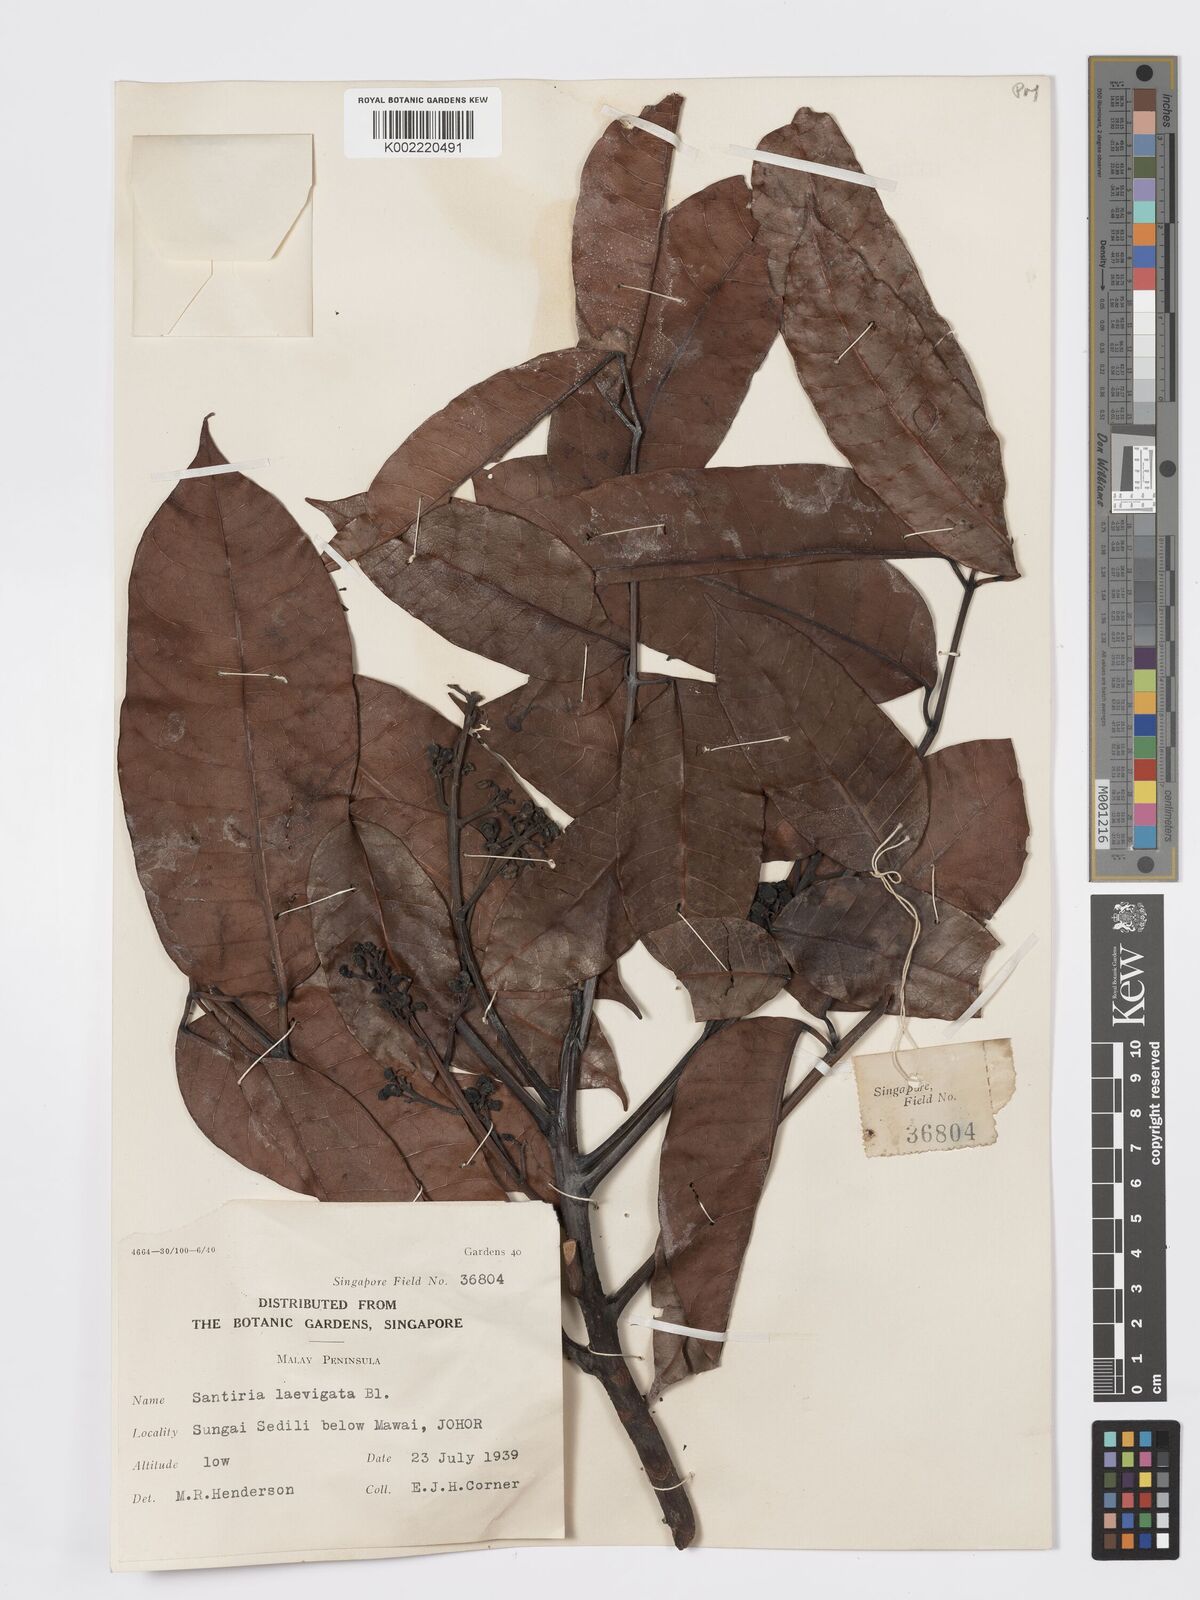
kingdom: Plantae
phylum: Tracheophyta
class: Magnoliopsida
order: Sapindales
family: Burseraceae
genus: Santiria
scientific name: Santiria laevigata
